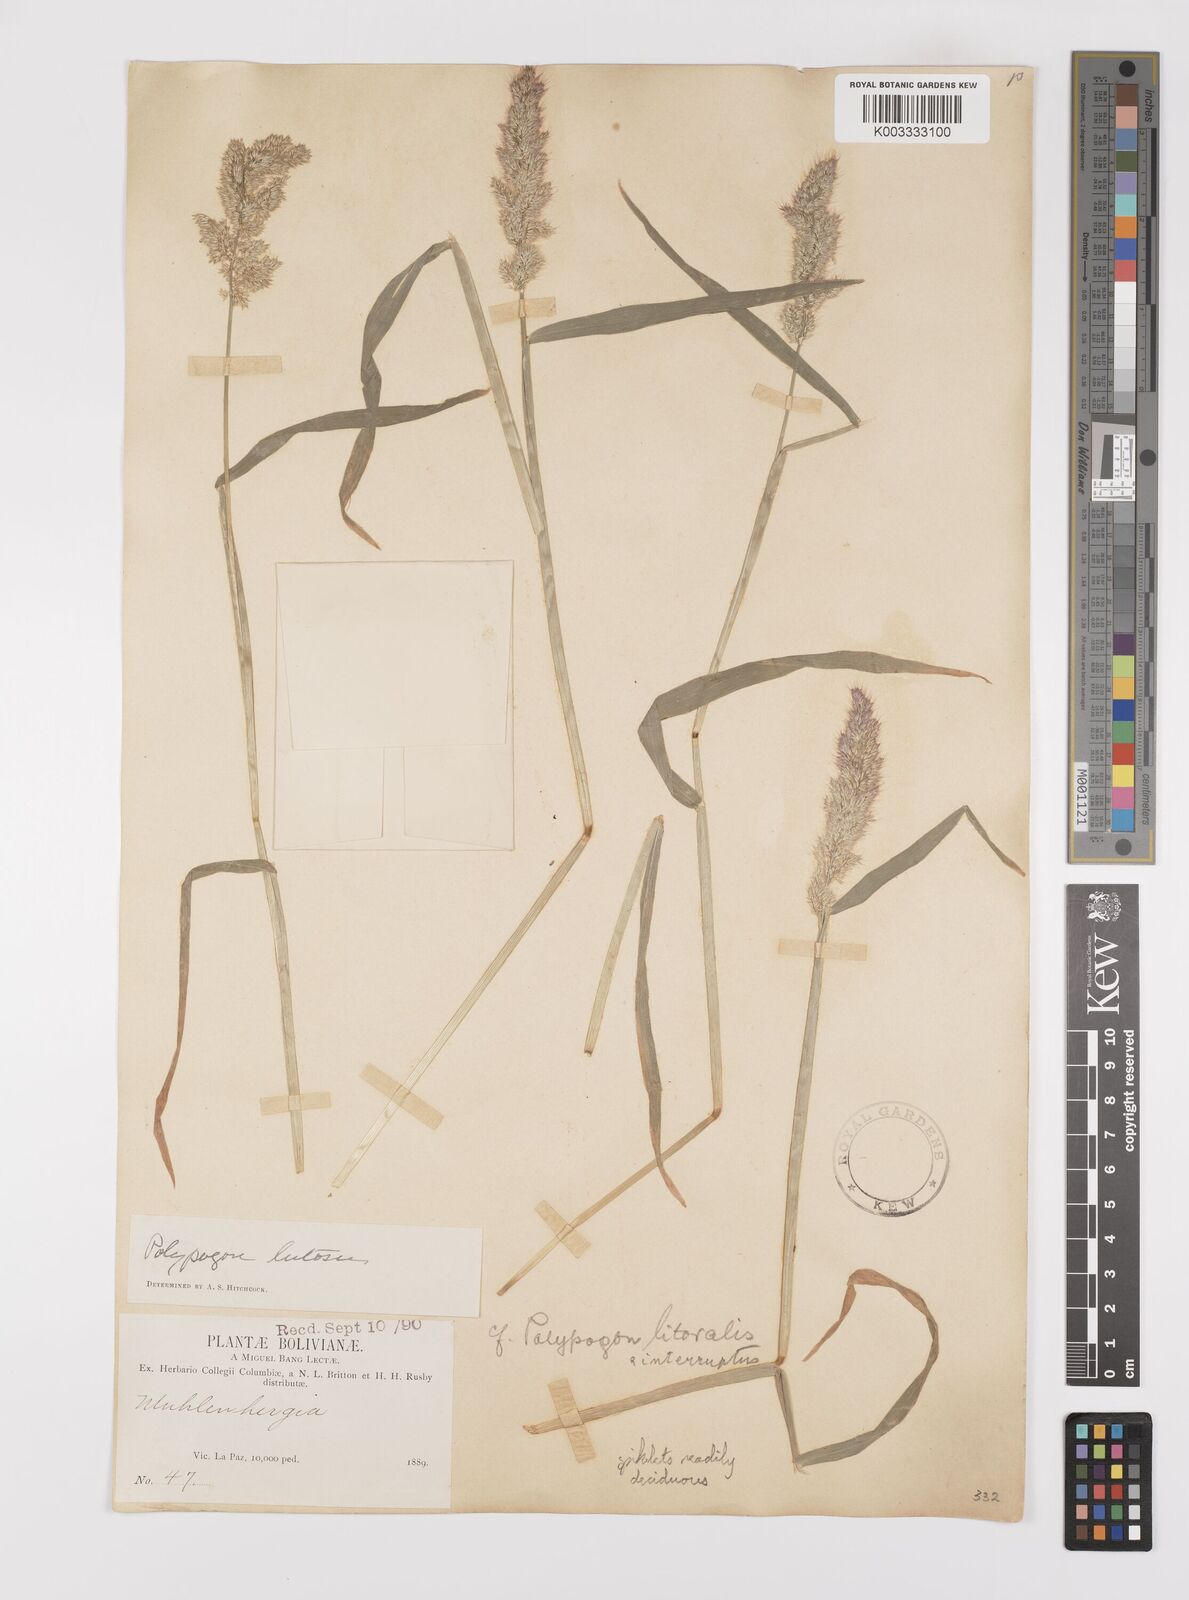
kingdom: Plantae
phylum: Tracheophyta
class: Liliopsida
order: Poales
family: Poaceae
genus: Polypogon
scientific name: Polypogon interruptus
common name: Ditch polypogon
